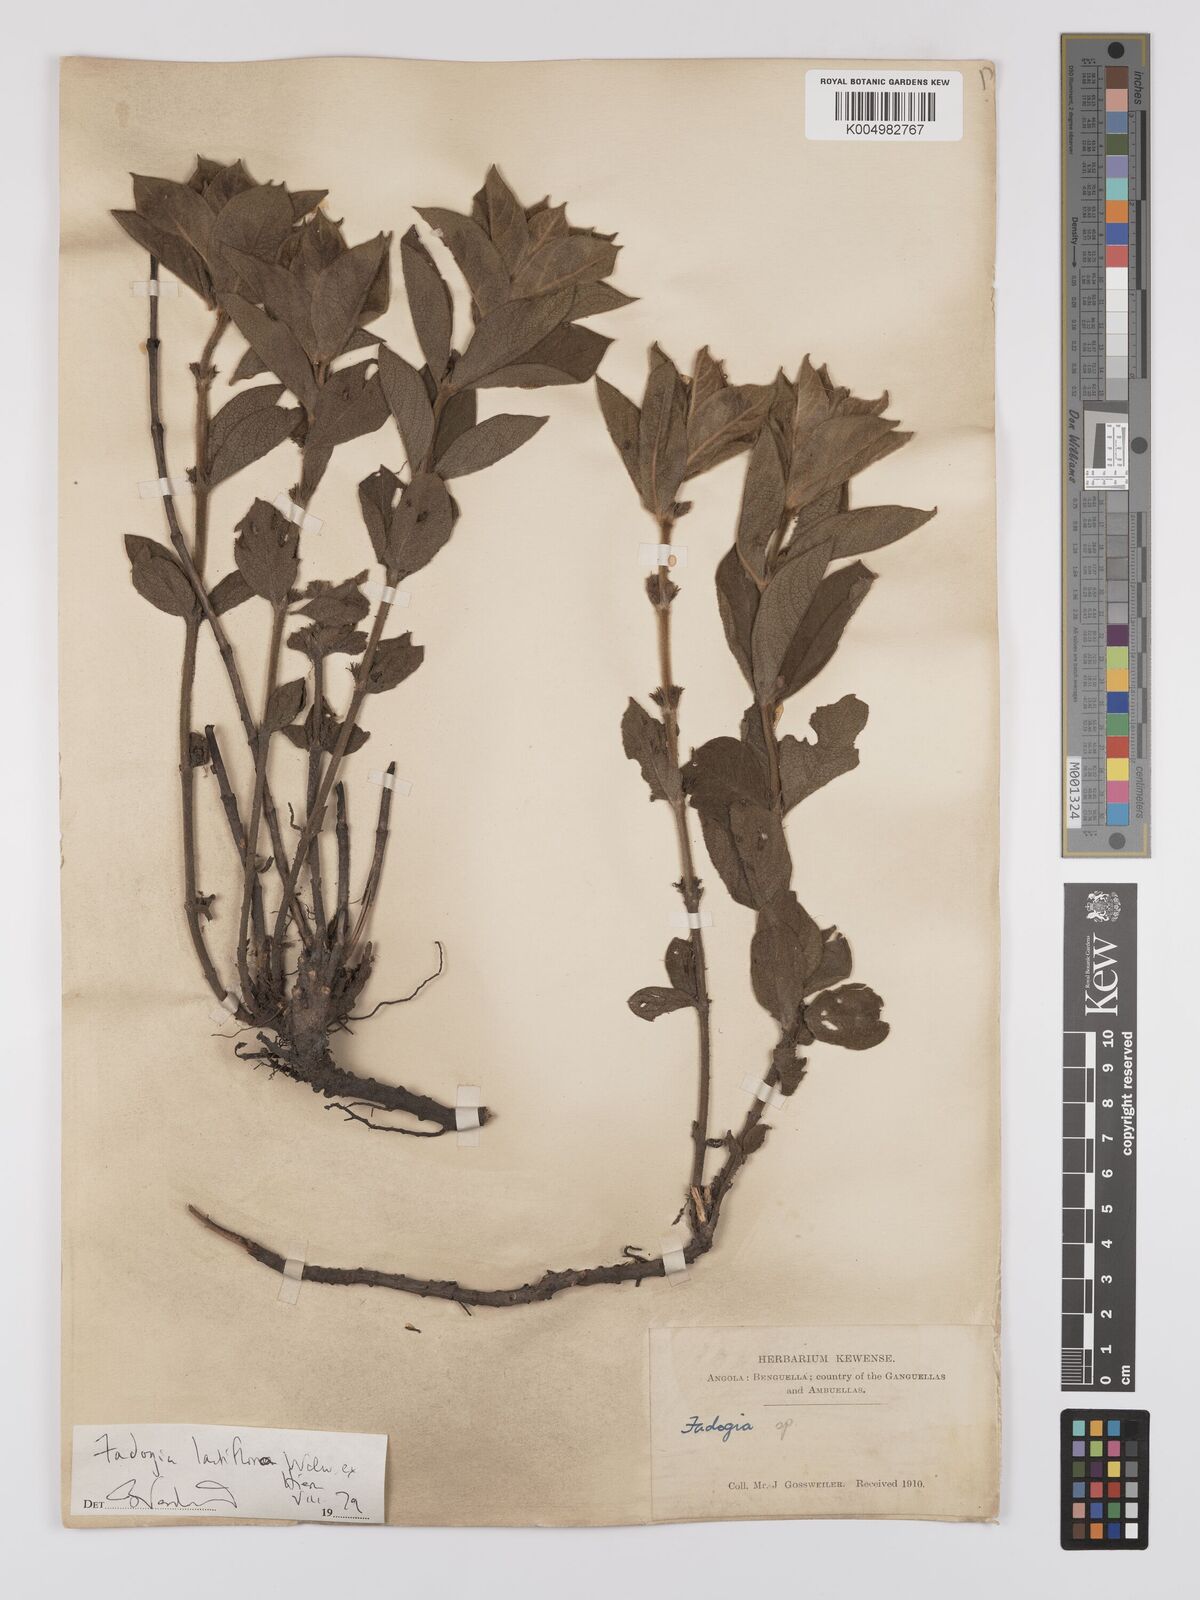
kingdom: Plantae
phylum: Tracheophyta
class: Magnoliopsida
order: Gentianales
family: Rubiaceae
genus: Fadogia
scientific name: Fadogia lactiflora
